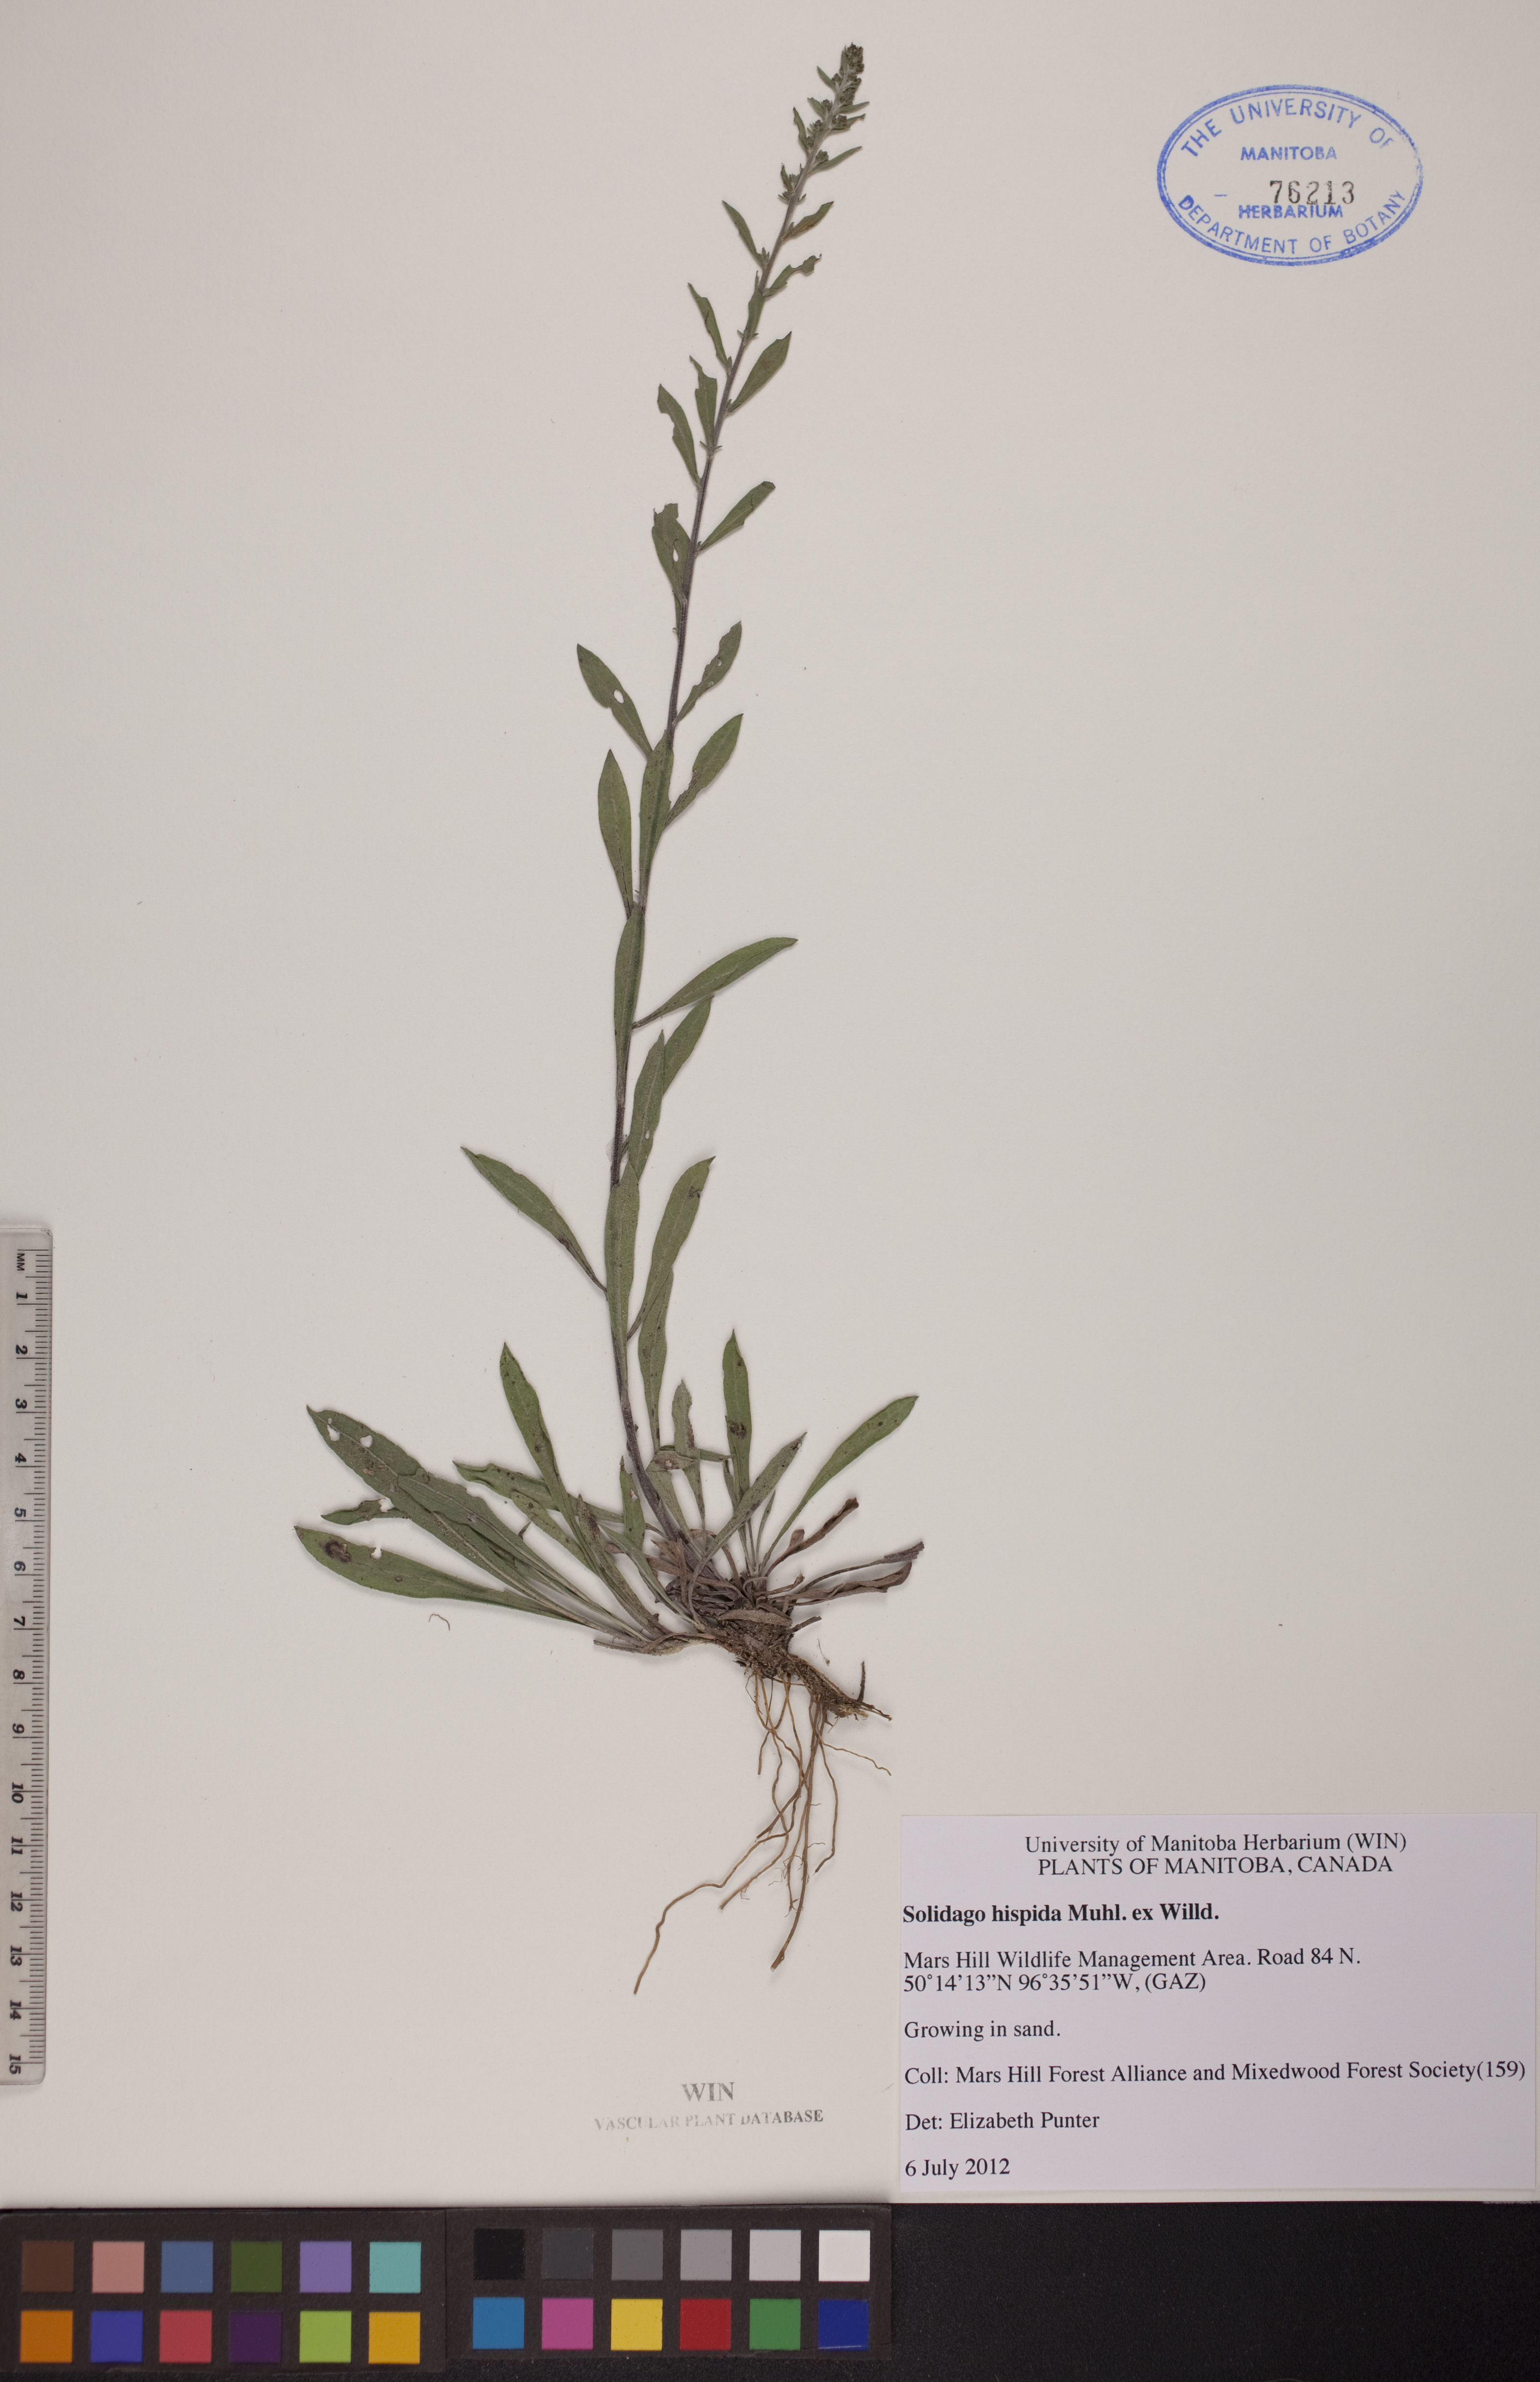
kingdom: Plantae
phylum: Tracheophyta
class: Magnoliopsida
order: Asterales
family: Asteraceae
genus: Solidago
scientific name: Solidago hispida
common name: Hairy goldenrod
